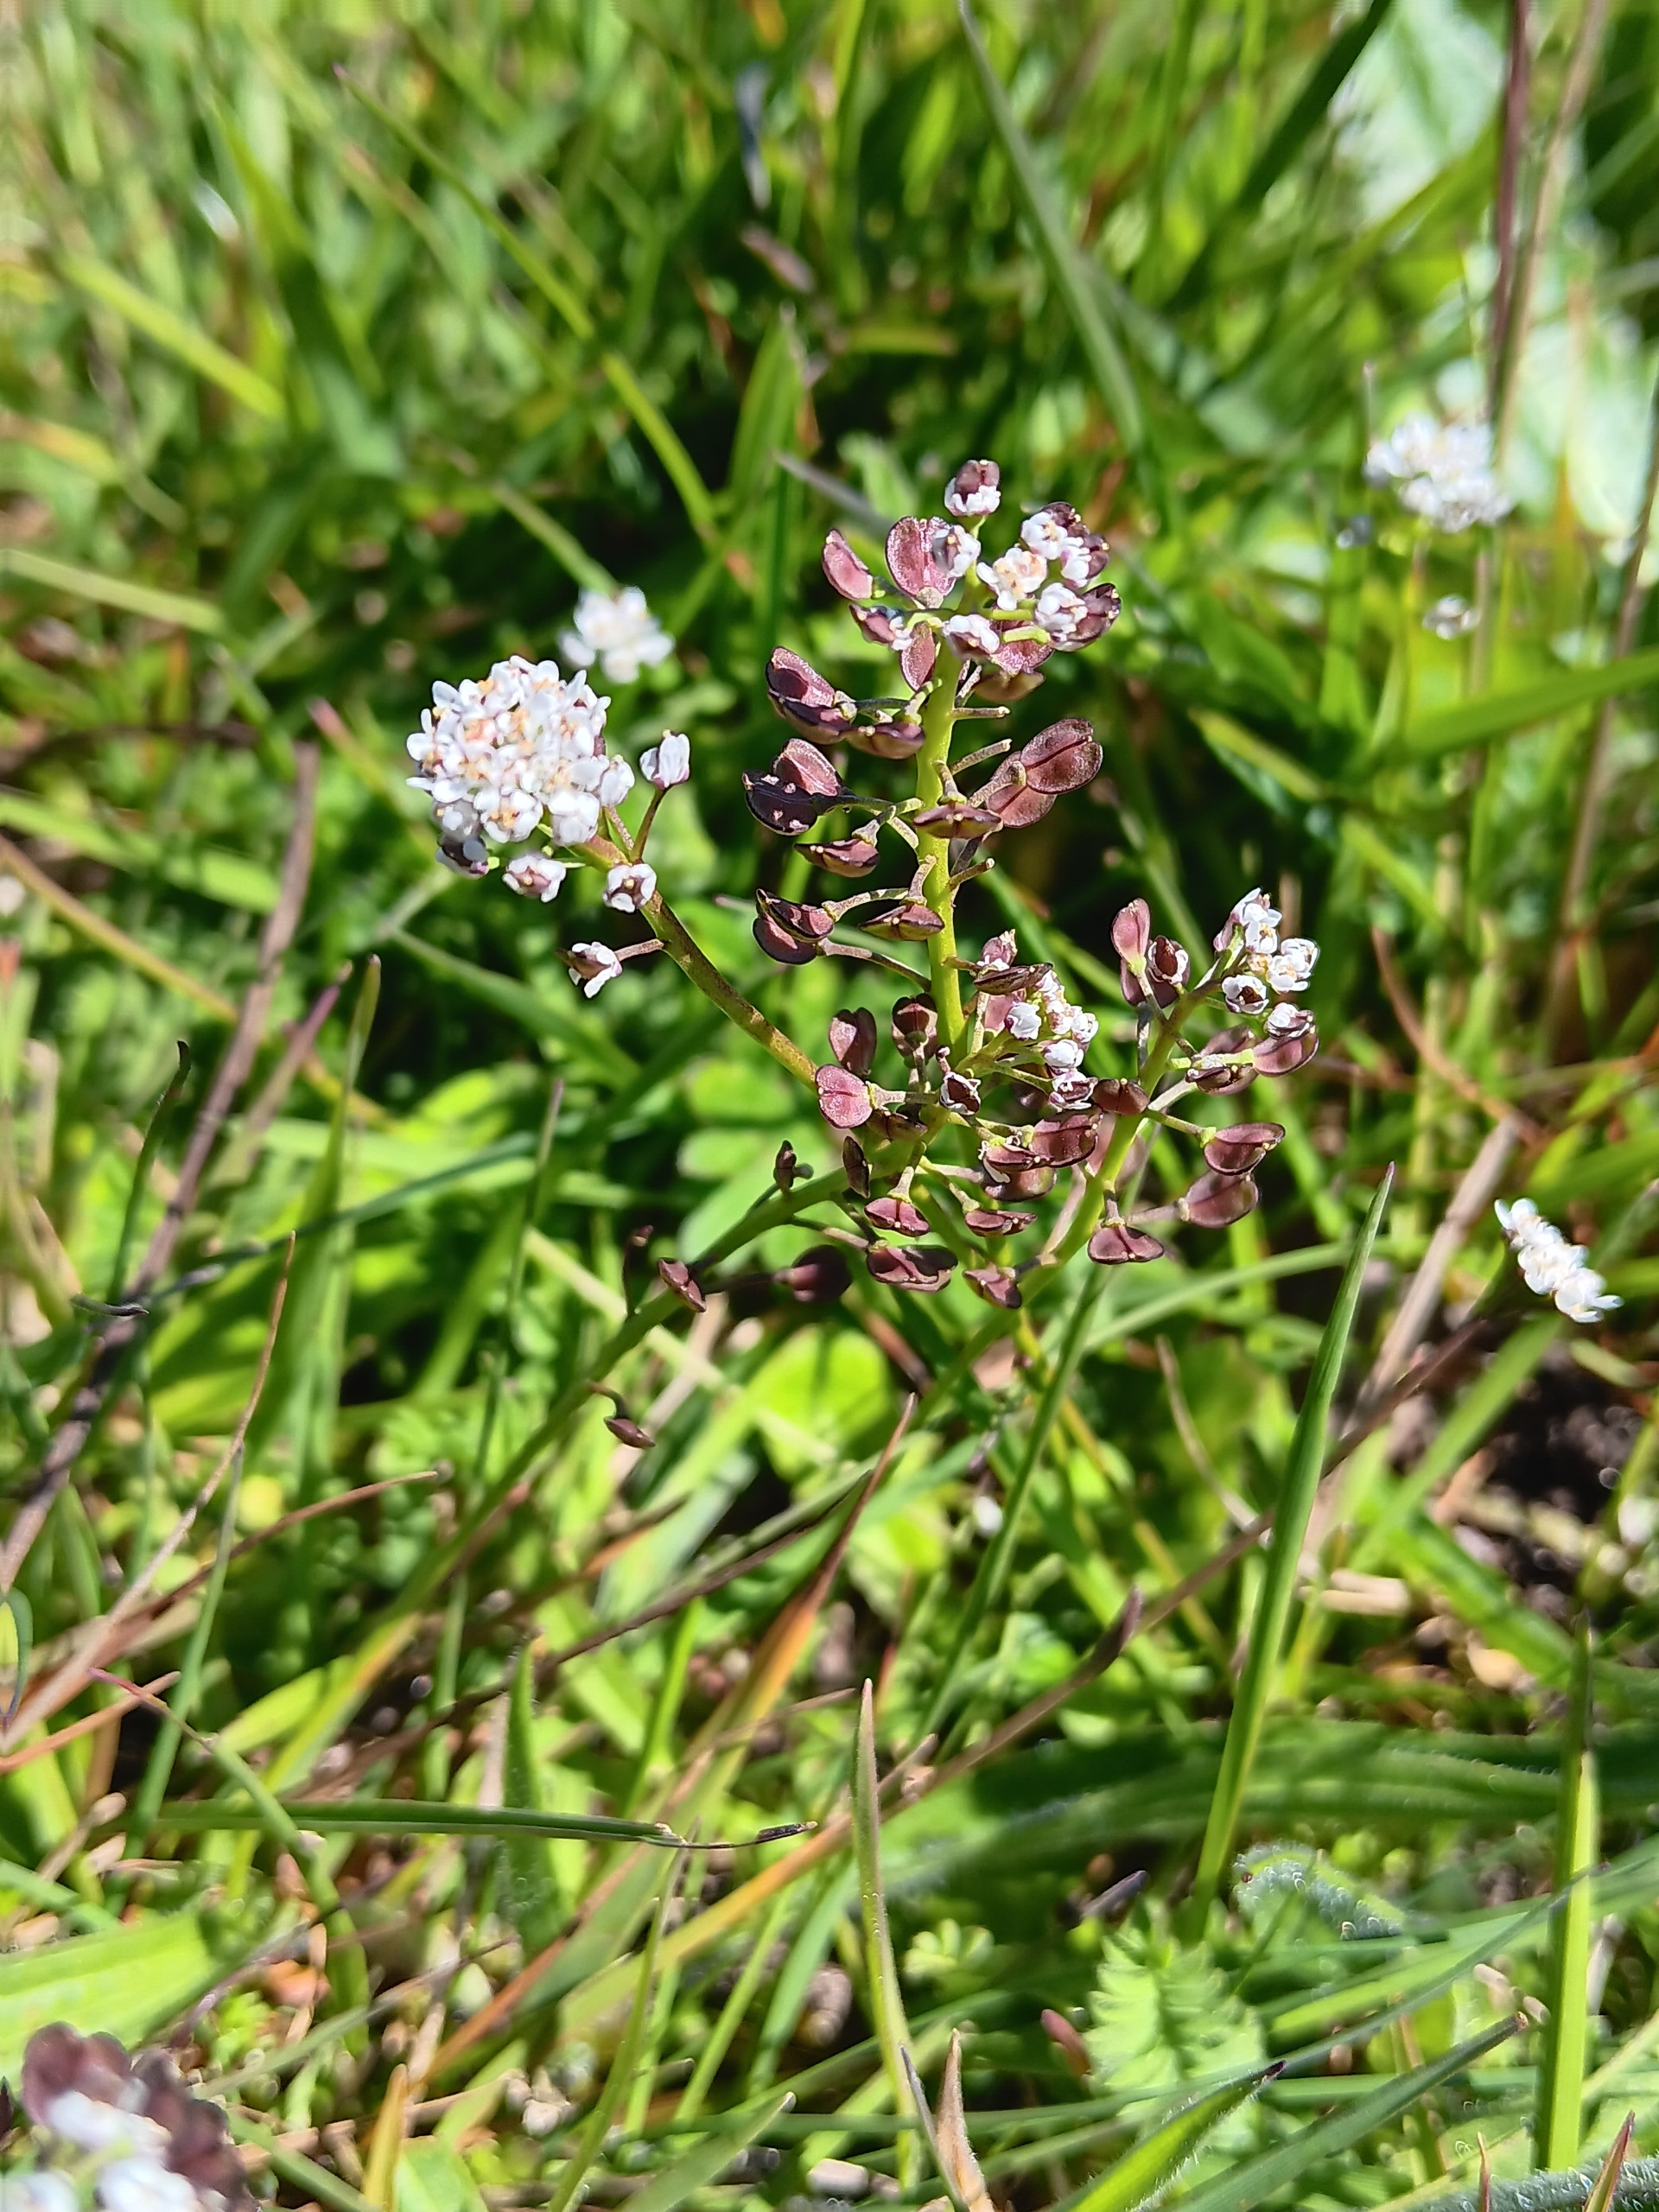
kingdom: Plantae
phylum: Tracheophyta
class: Magnoliopsida
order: Brassicales
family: Brassicaceae
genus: Teesdalia
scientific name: Teesdalia nudicaulis
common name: Flipkrave
